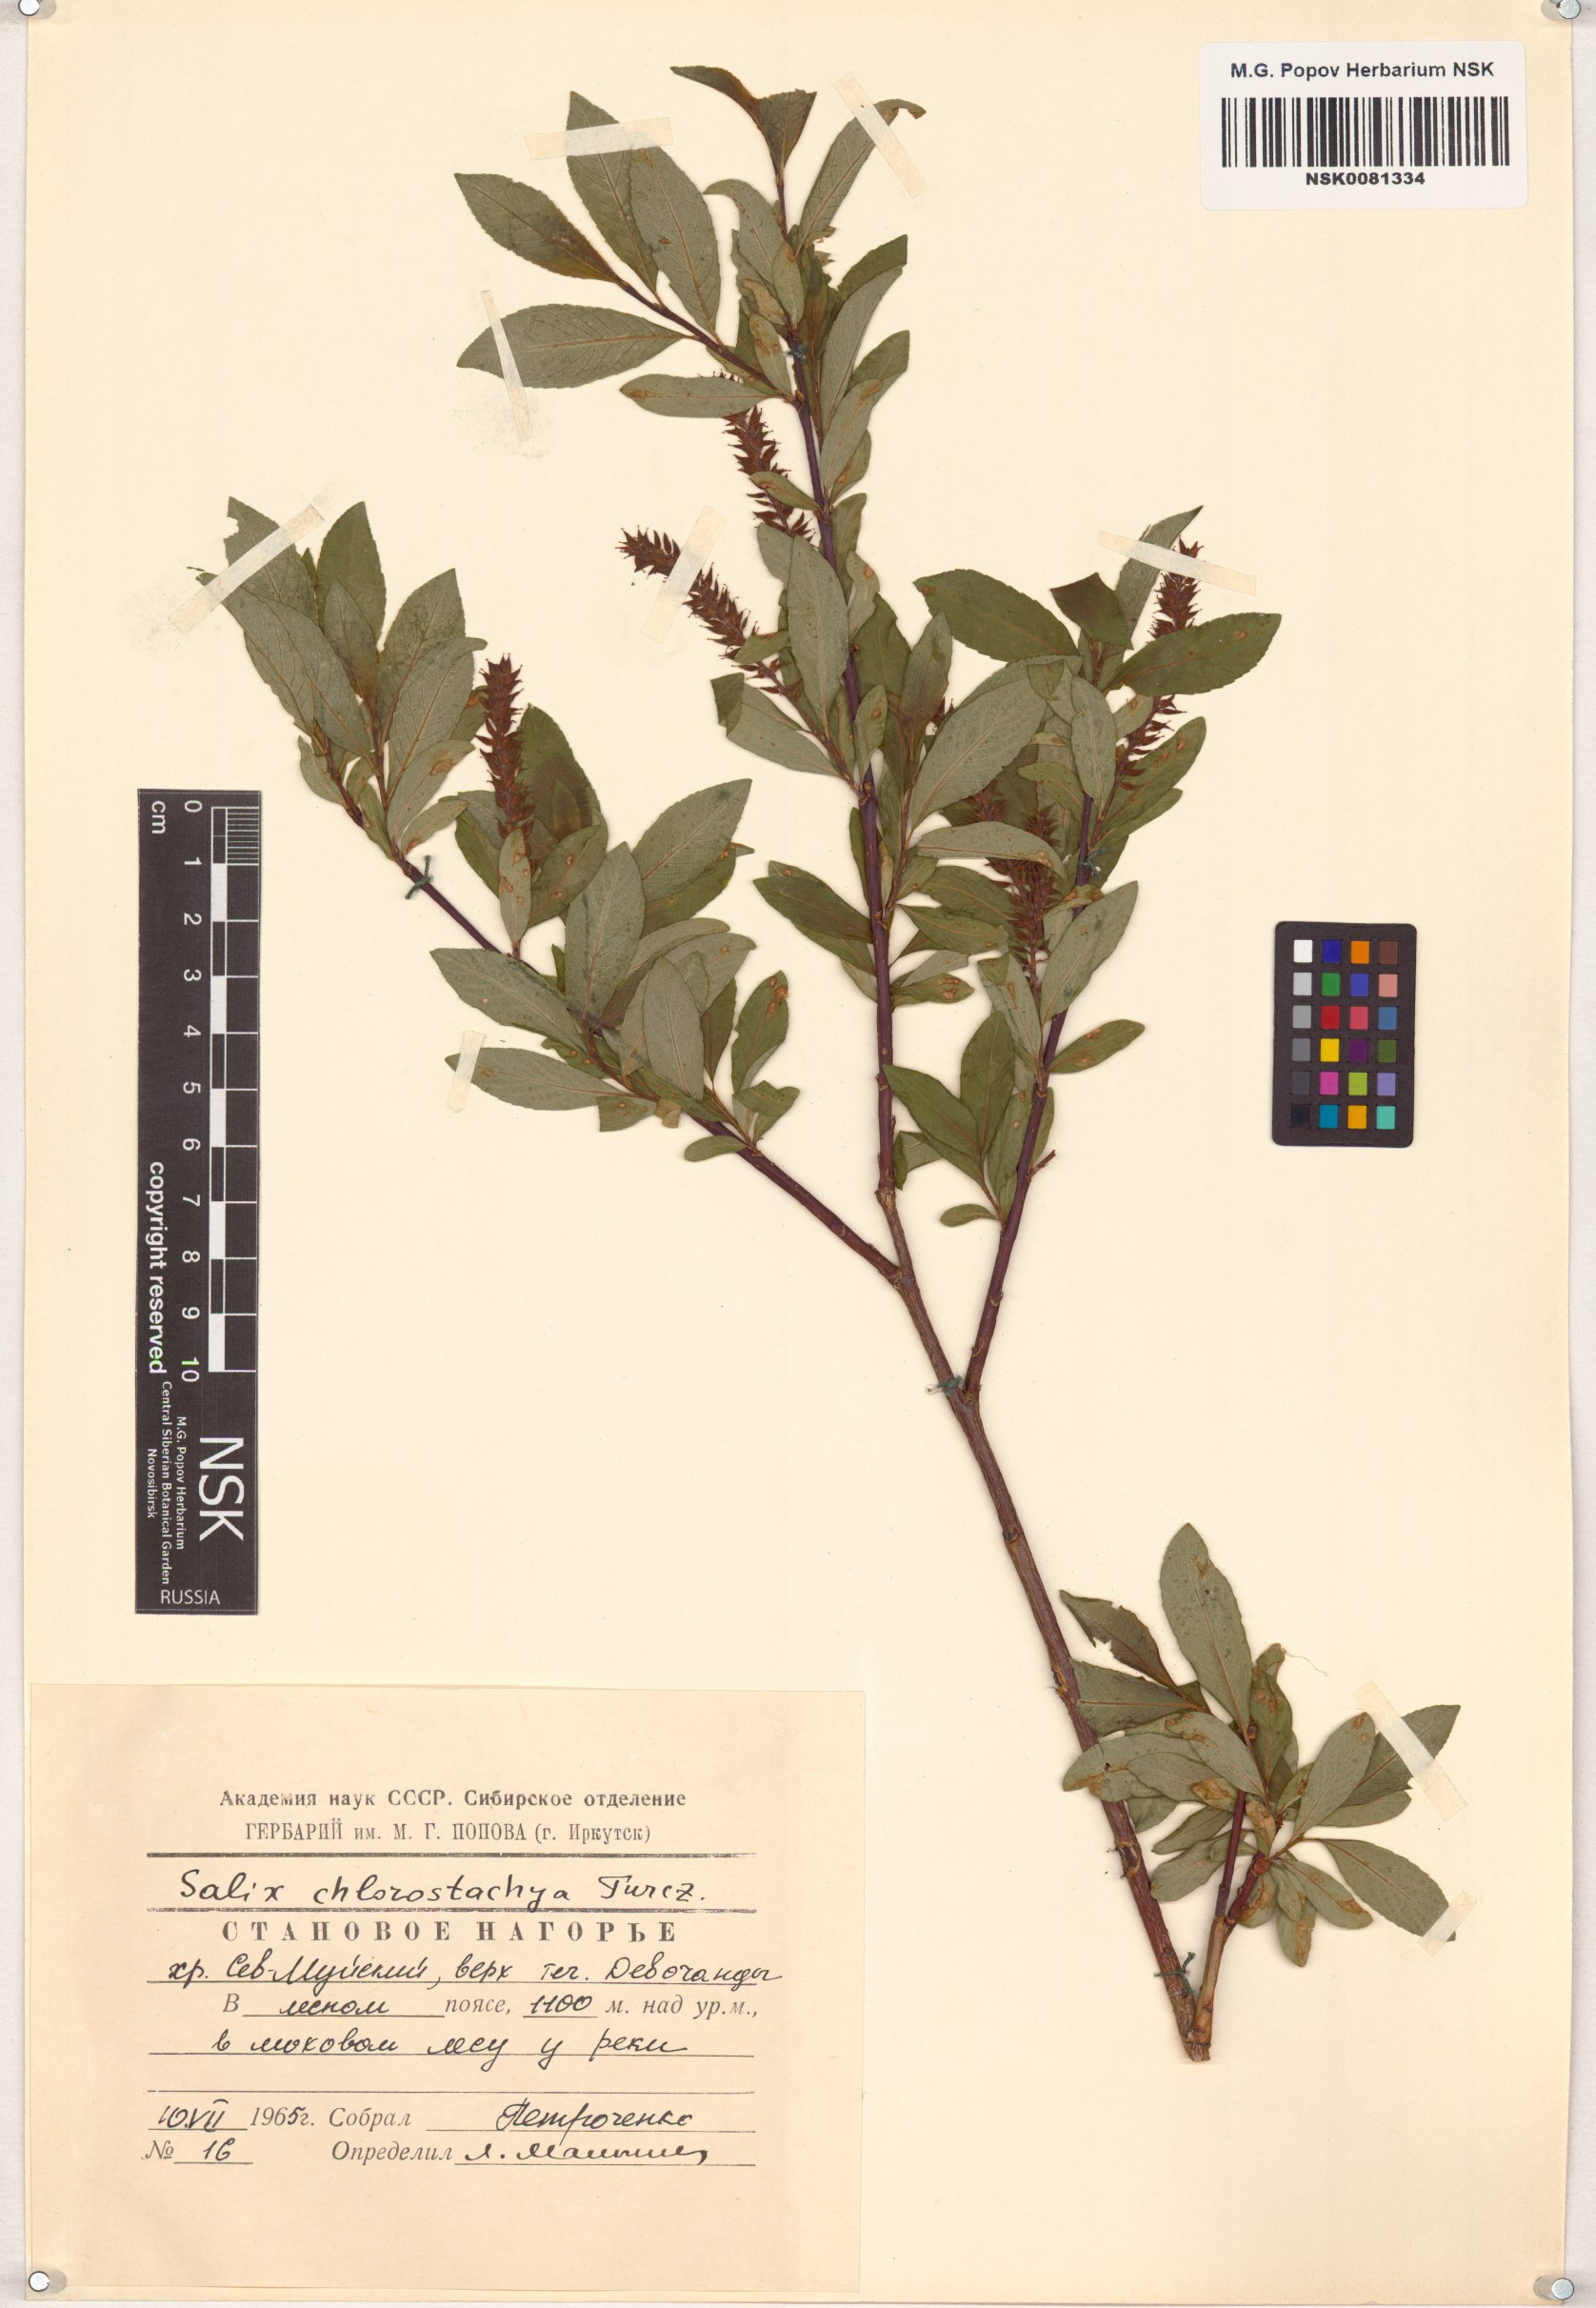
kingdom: Plantae
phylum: Tracheophyta
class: Magnoliopsida
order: Malpighiales
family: Salicaceae
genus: Salix
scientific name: Salix rhamnifolia
